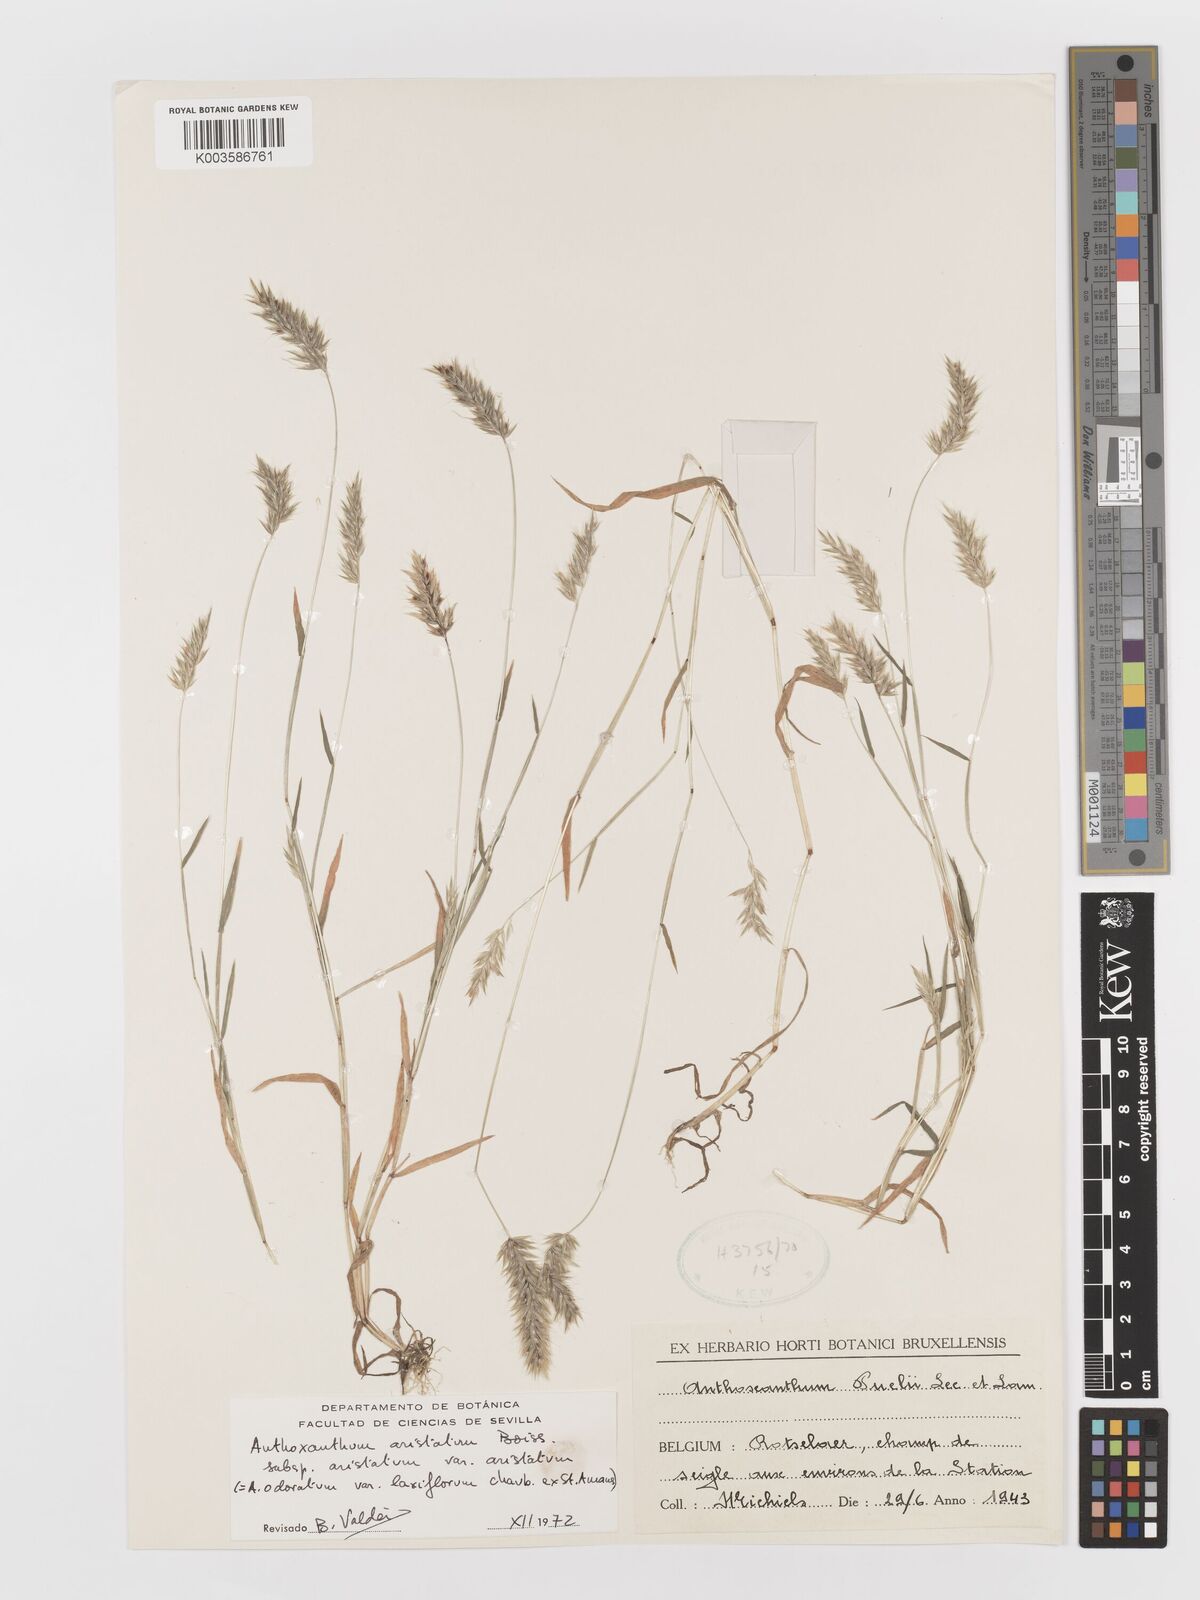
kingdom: Plantae
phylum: Tracheophyta
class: Liliopsida
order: Poales
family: Poaceae
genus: Anthoxanthum
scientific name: Anthoxanthum aristatum
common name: Annual vernal-grass
